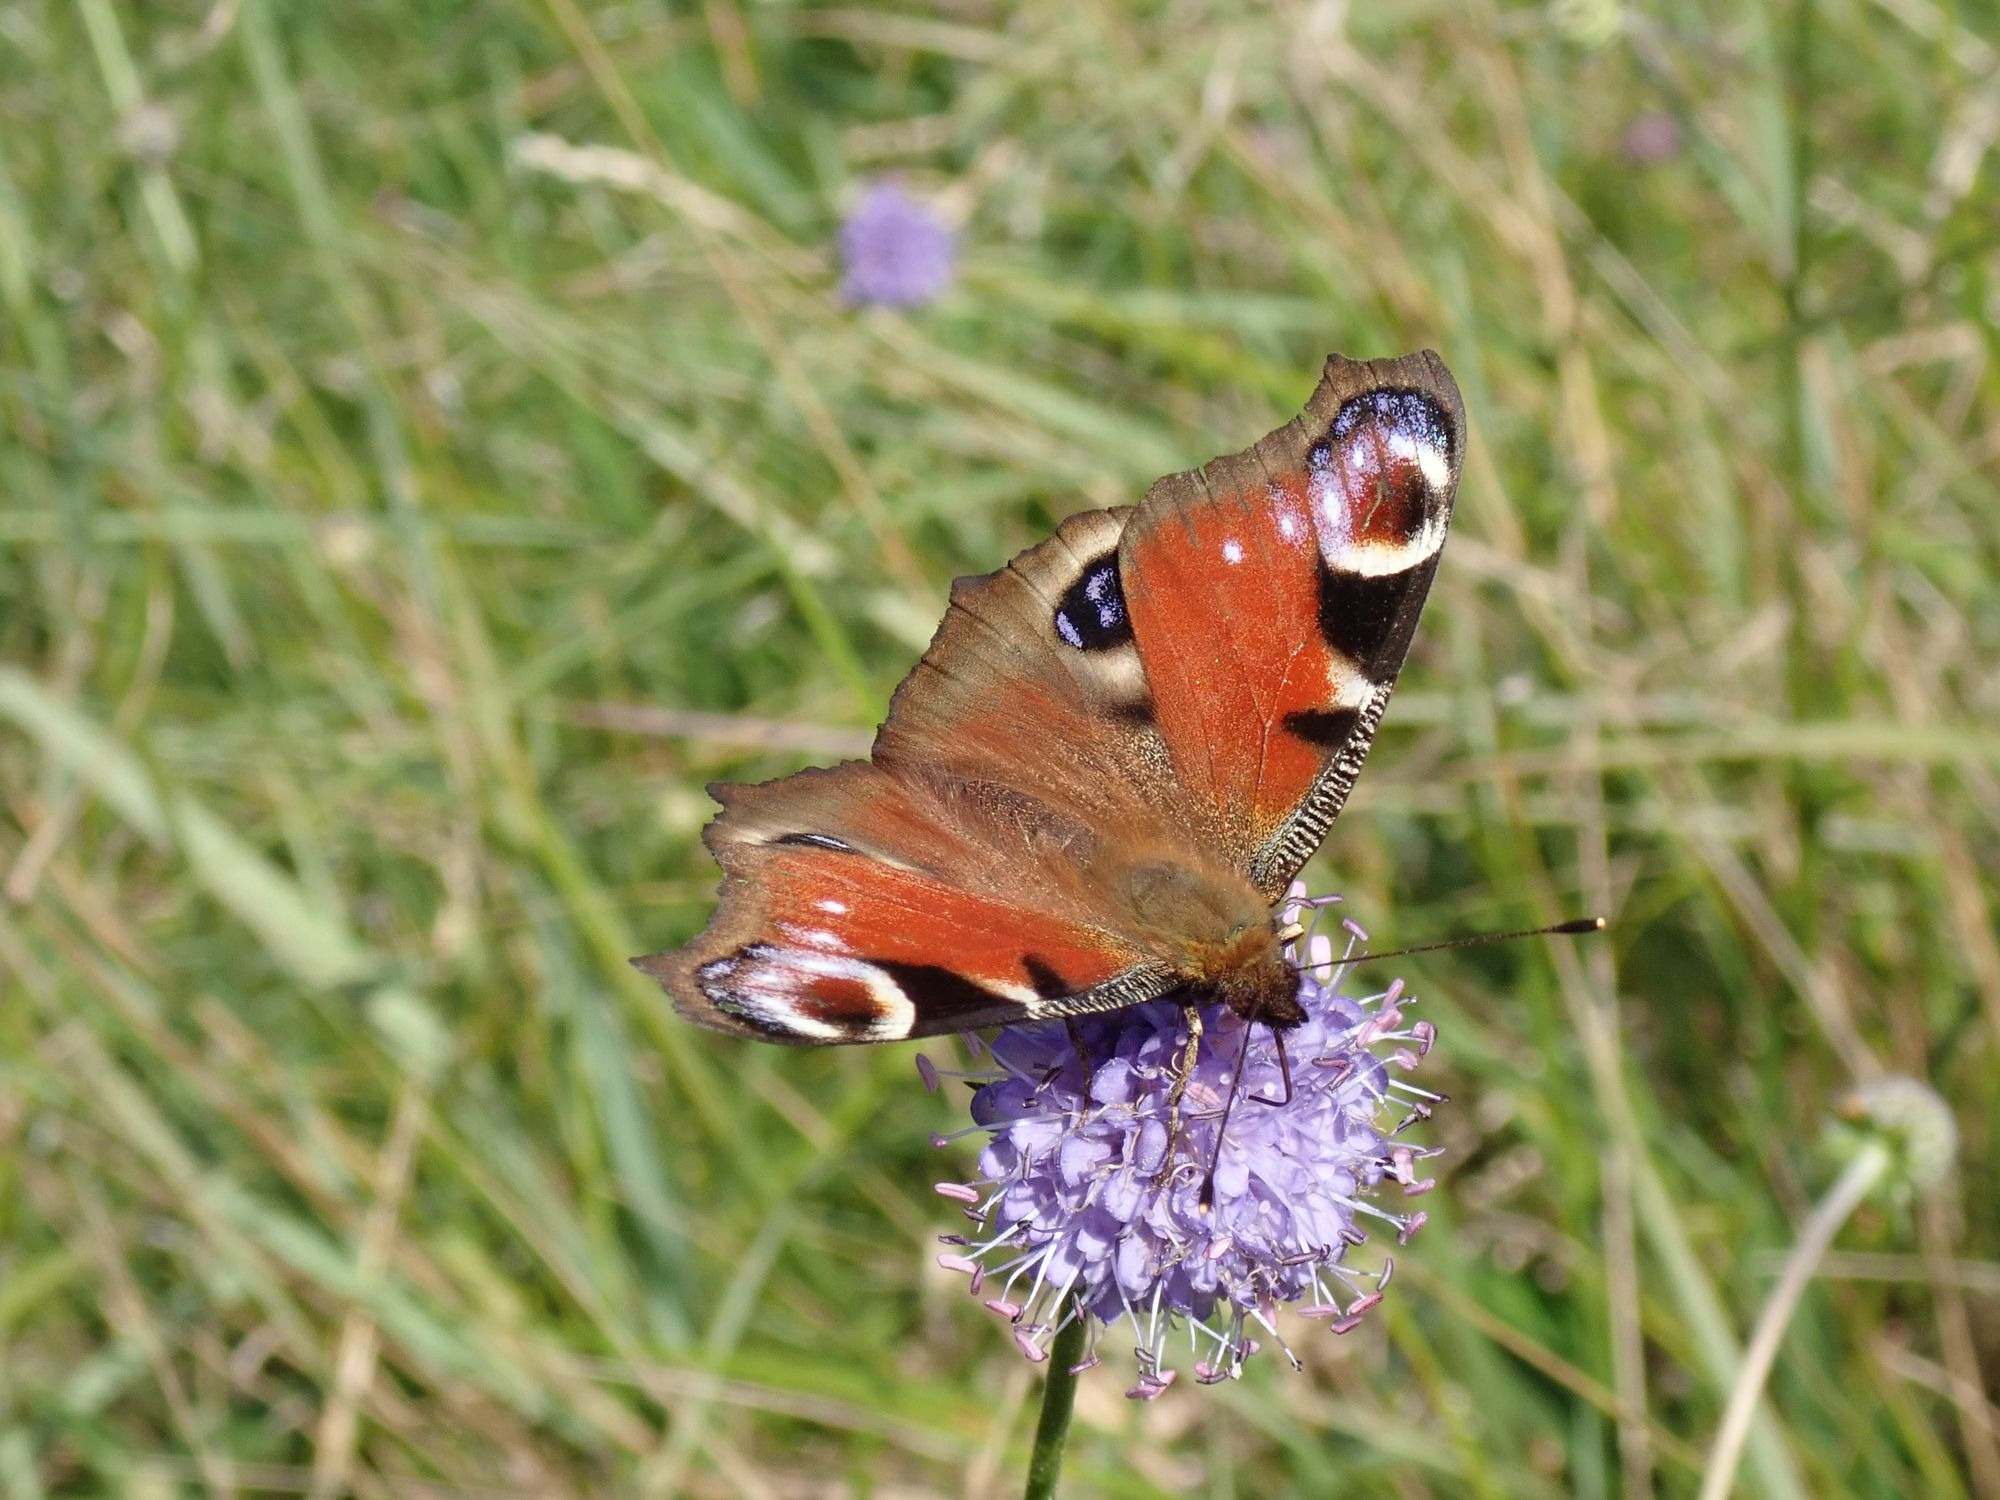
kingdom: Animalia
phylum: Arthropoda
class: Insecta
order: Lepidoptera
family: Nymphalidae
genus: Aglais
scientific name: Aglais io
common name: Dagpåfugleøje
